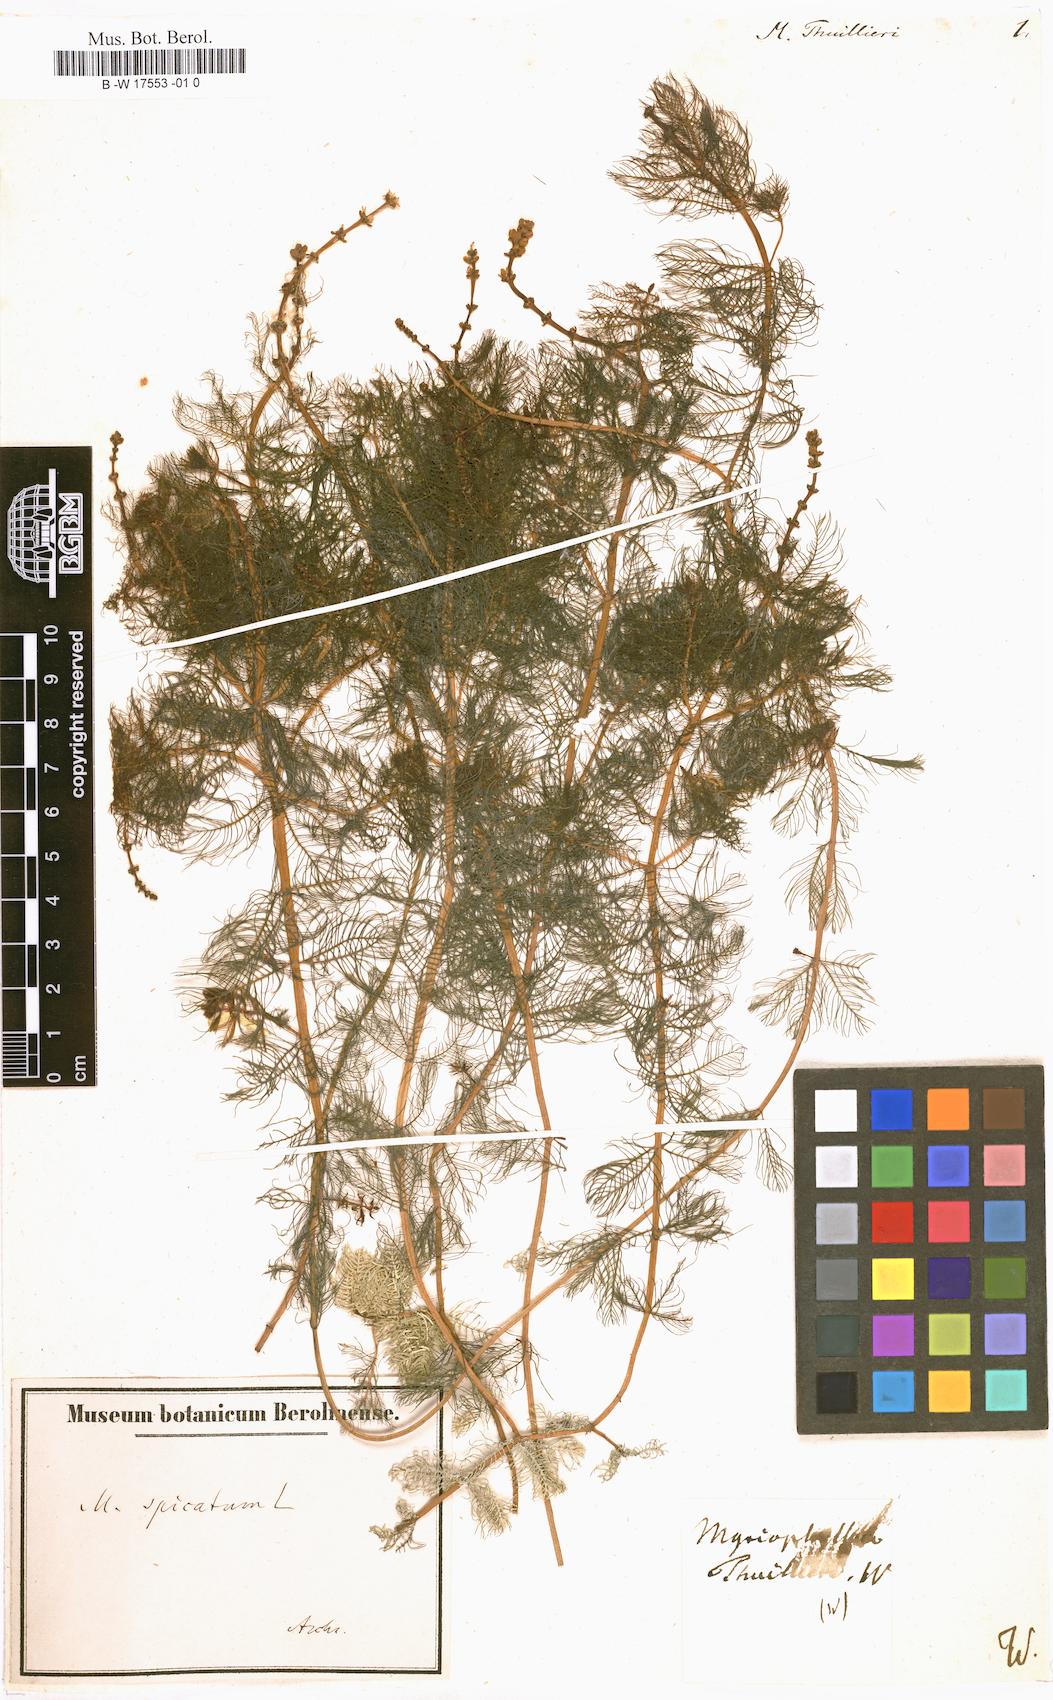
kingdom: Plantae
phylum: Tracheophyta
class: Magnoliopsida
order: Saxifragales
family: Haloragaceae
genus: Myriophyllum
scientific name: Myriophyllum
